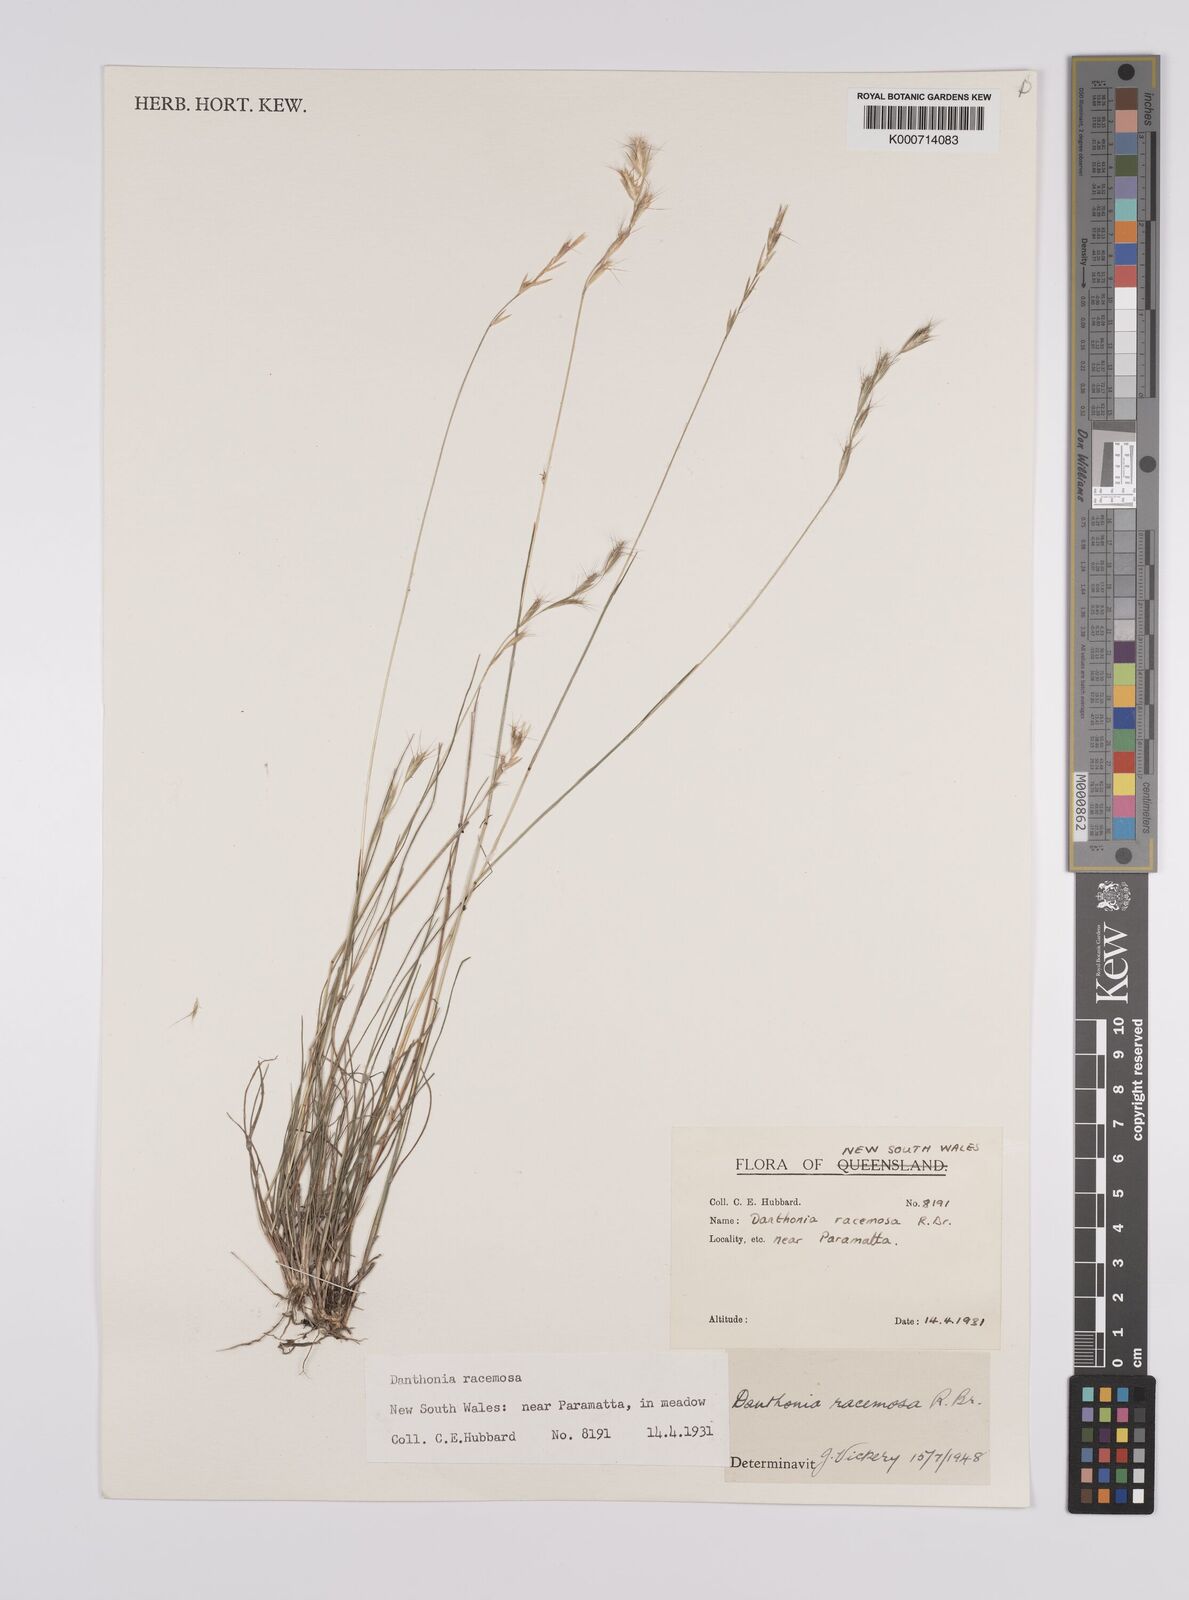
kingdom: Plantae
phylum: Tracheophyta
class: Liliopsida
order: Poales
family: Poaceae
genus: Rytidosperma
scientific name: Rytidosperma racemosum
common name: Wallaby-grass
